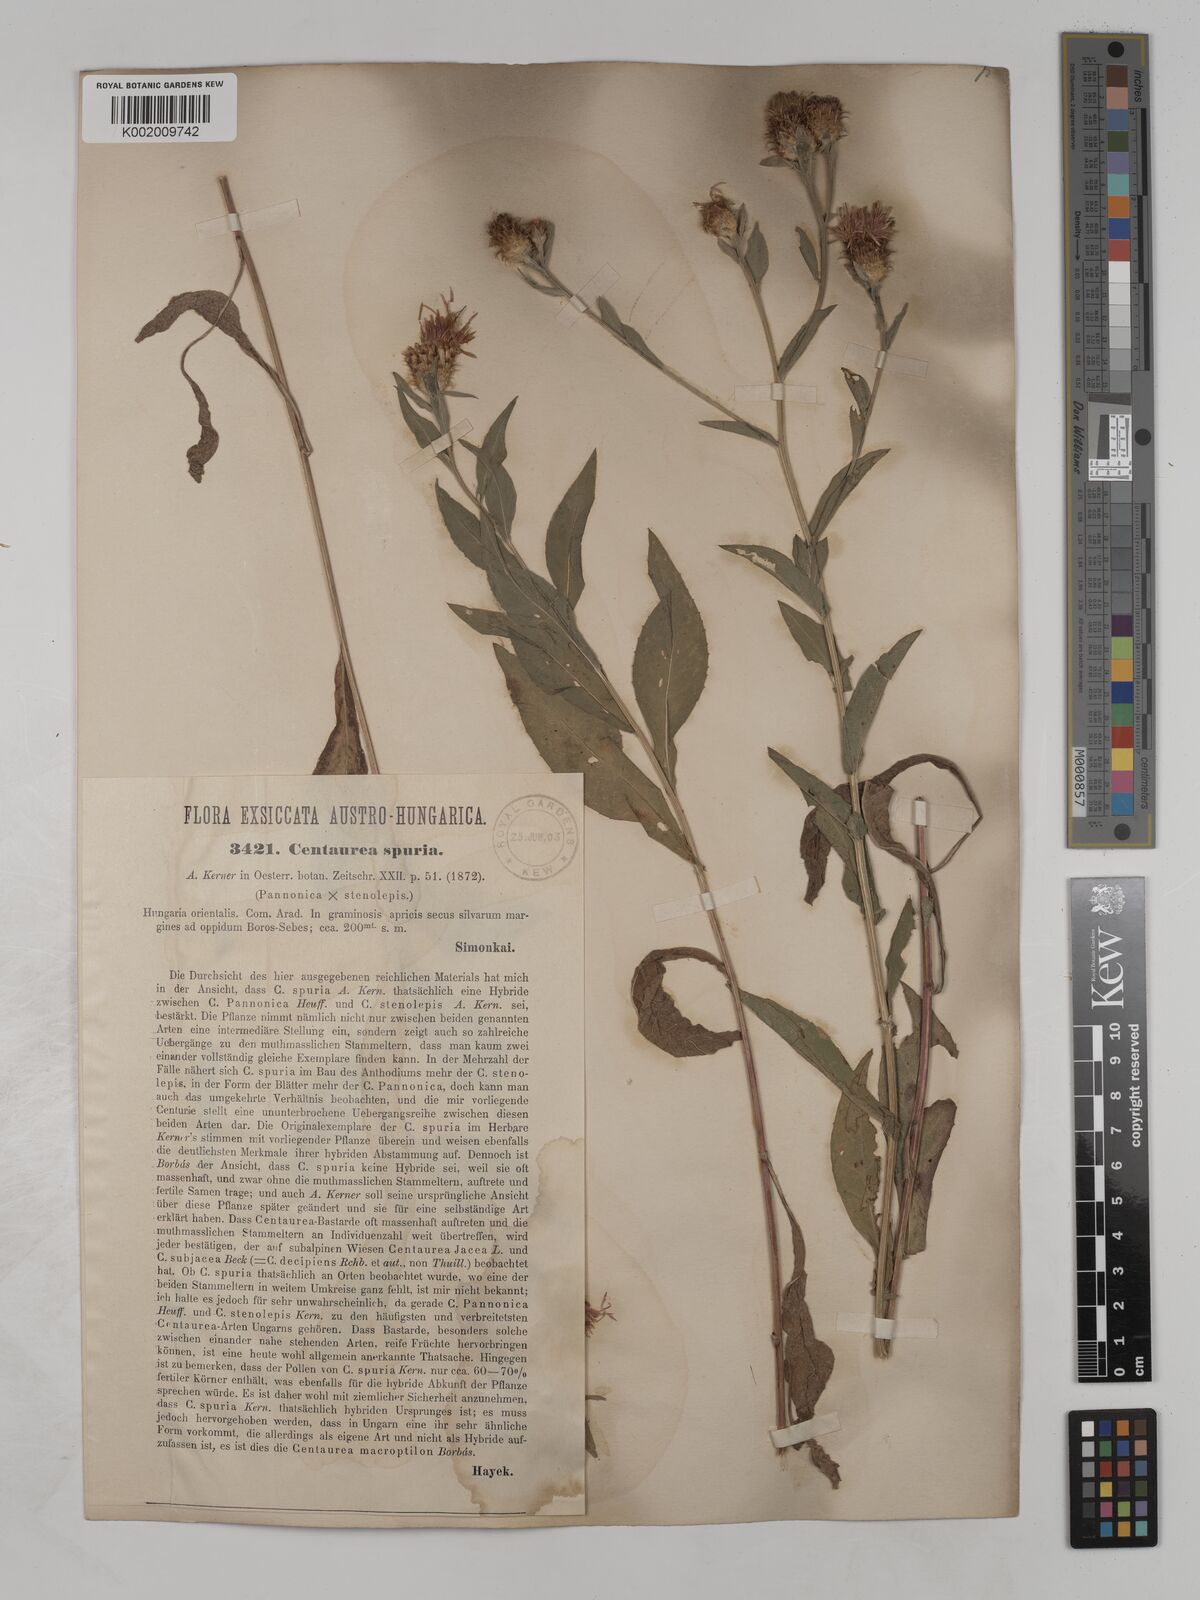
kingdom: Plantae
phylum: Tracheophyta
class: Magnoliopsida
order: Asterales
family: Asteraceae
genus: Centaurea
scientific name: Centaurea spuria
